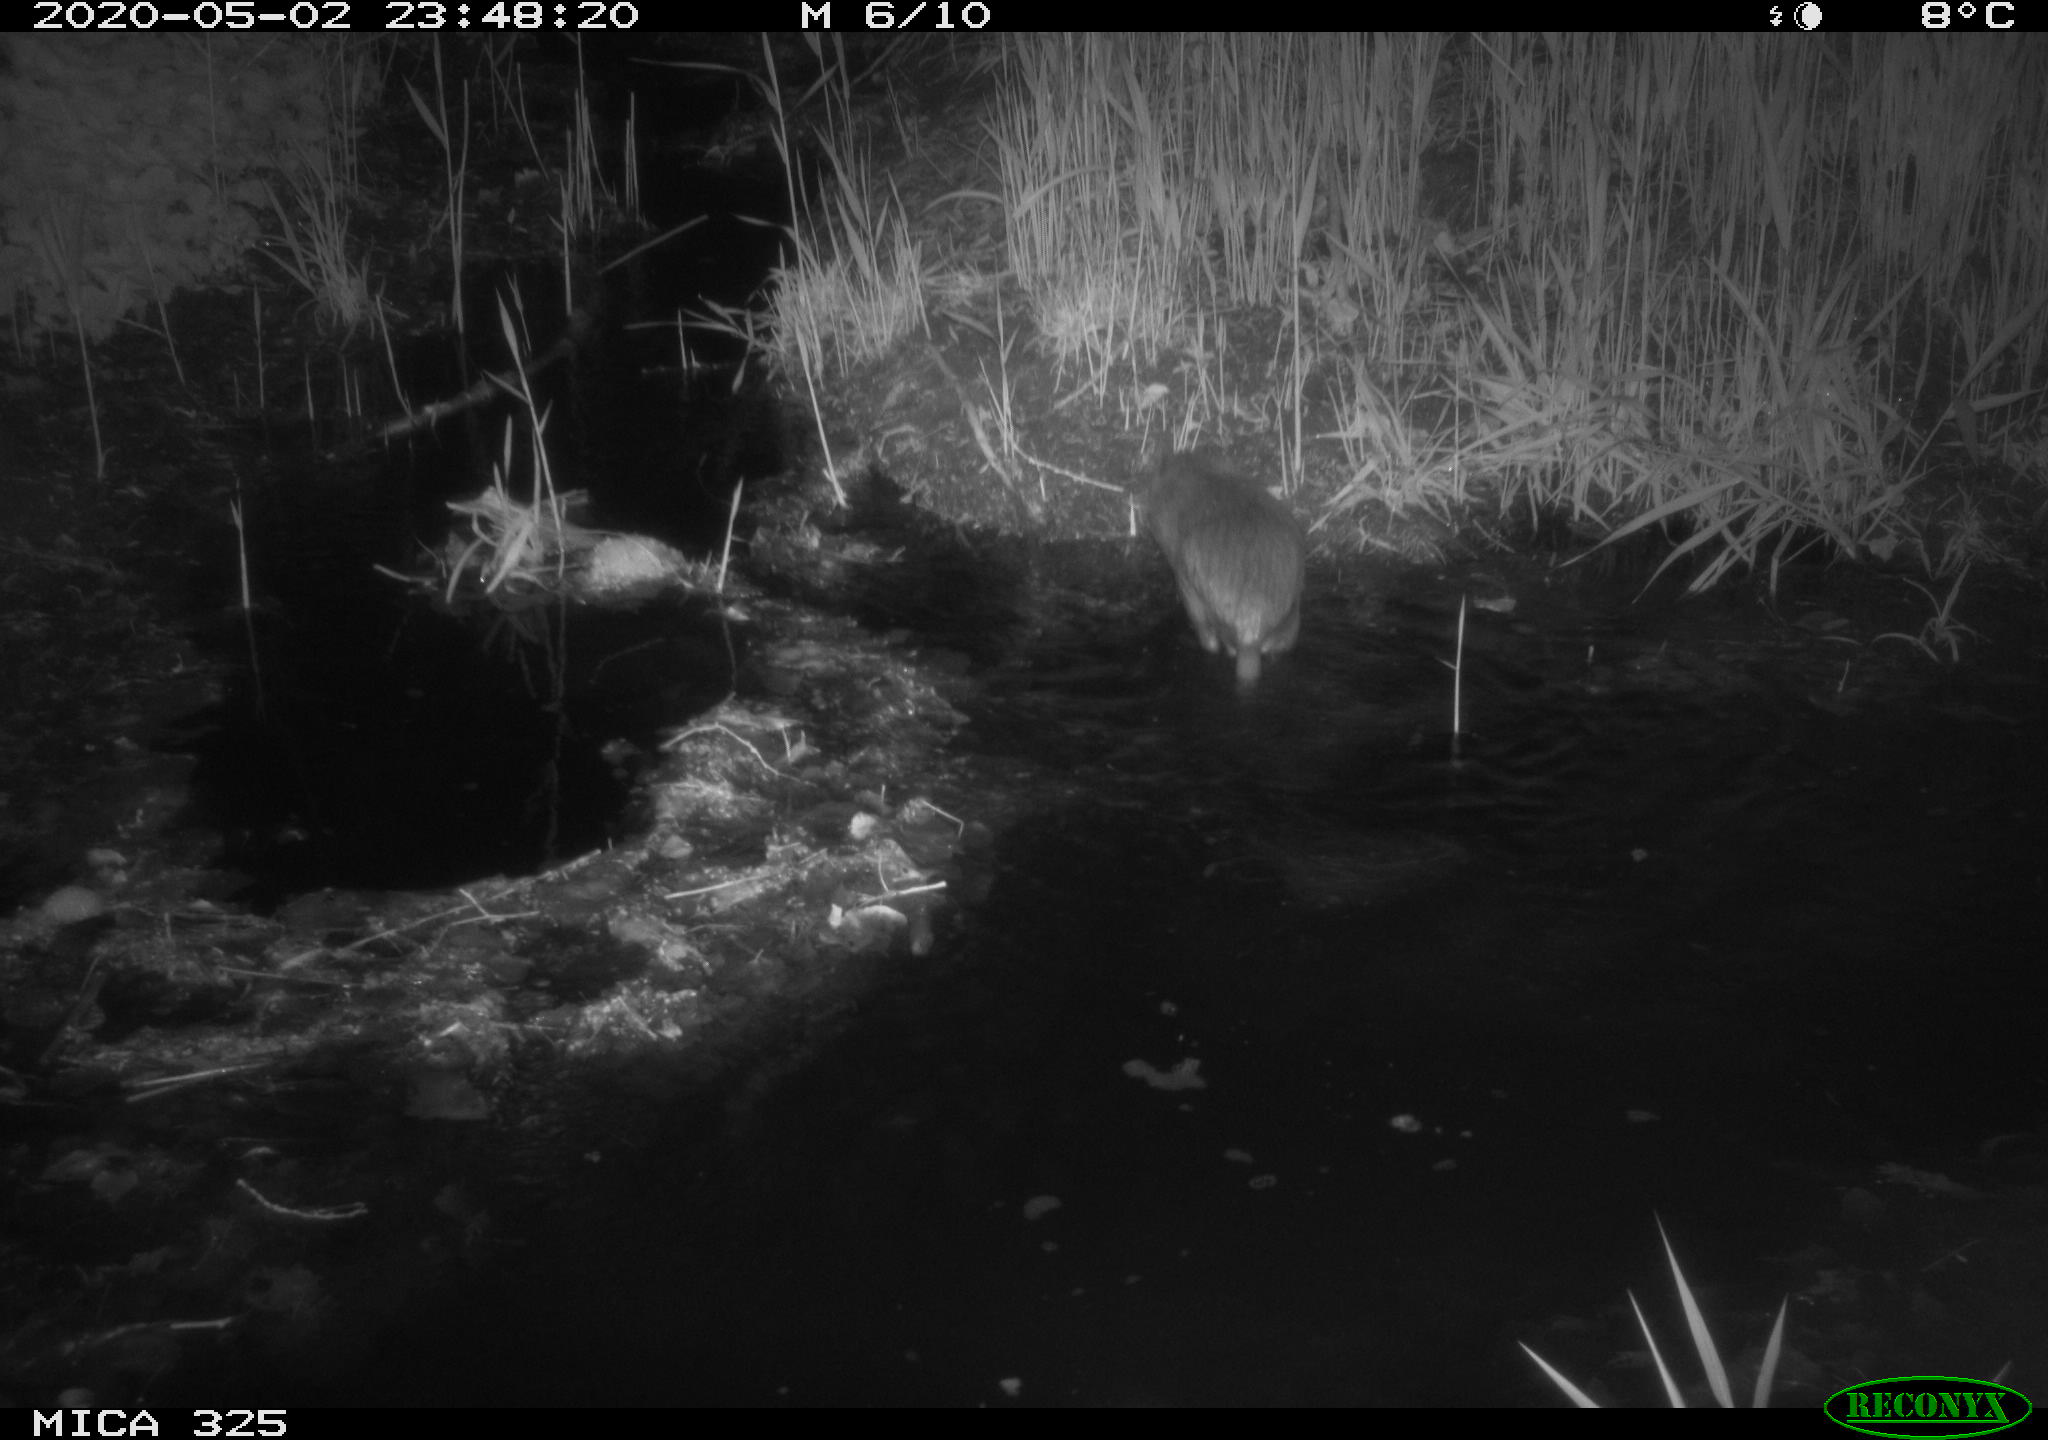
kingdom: Animalia
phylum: Chordata
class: Mammalia
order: Rodentia
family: Myocastoridae
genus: Myocastor
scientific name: Myocastor coypus
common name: Coypu
